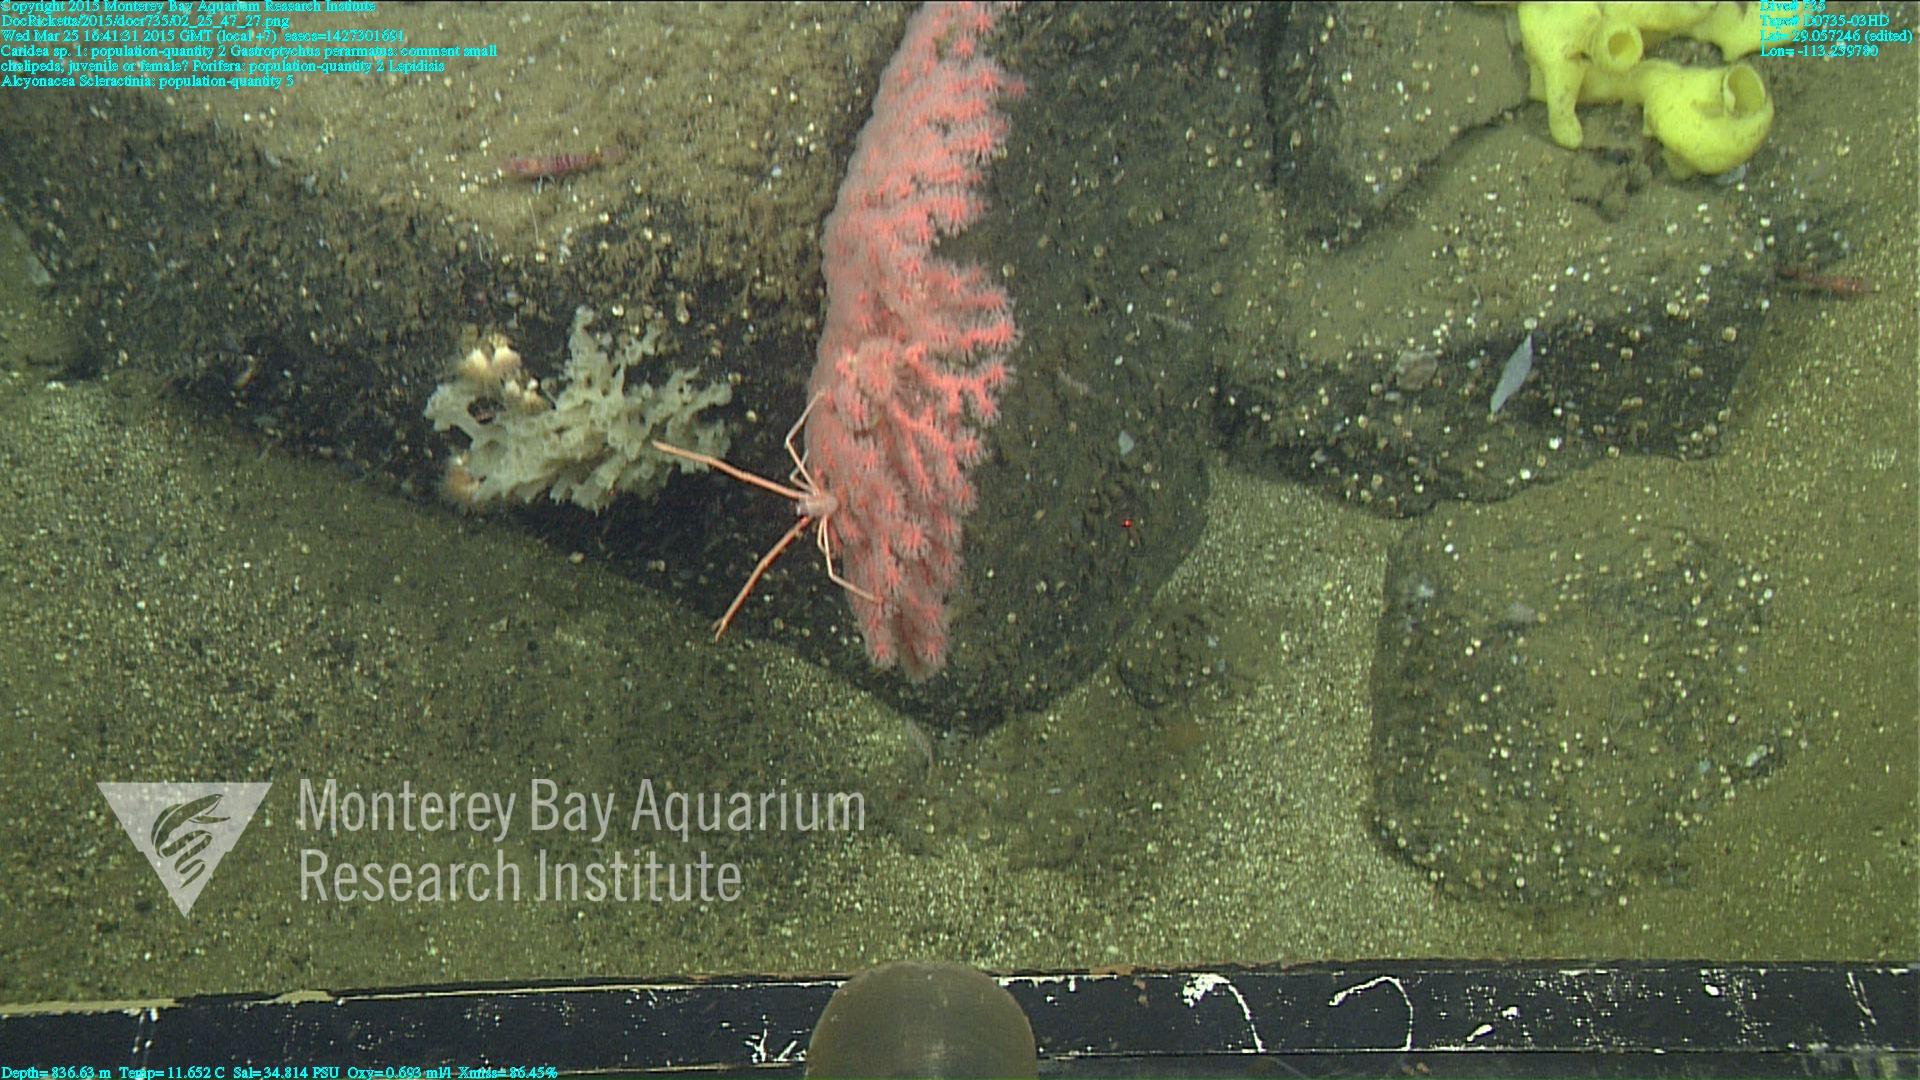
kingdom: Animalia
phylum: Cnidaria
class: Anthozoa
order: Scleralcyonacea
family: Keratoisididae
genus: Lepidisis
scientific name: Lepidisis
